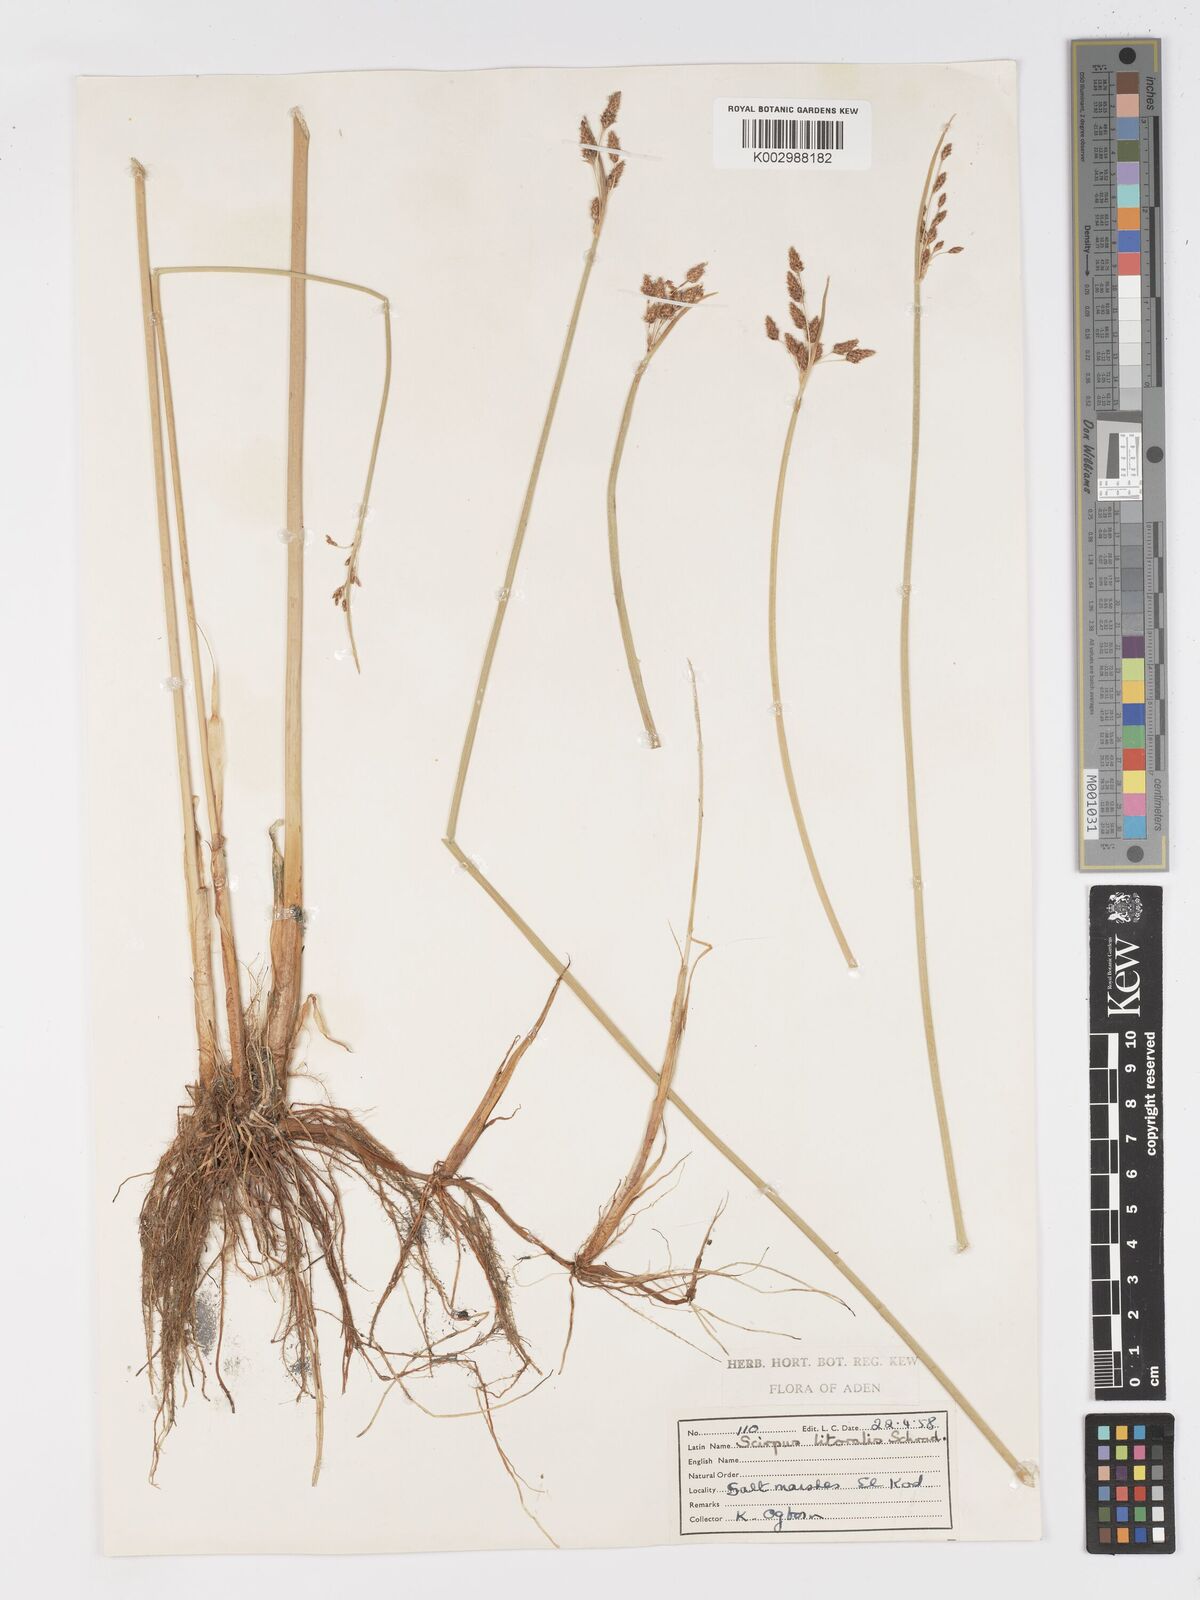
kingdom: Plantae
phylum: Tracheophyta
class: Liliopsida
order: Poales
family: Cyperaceae
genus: Schoenoplectus
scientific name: Schoenoplectus litoralis
